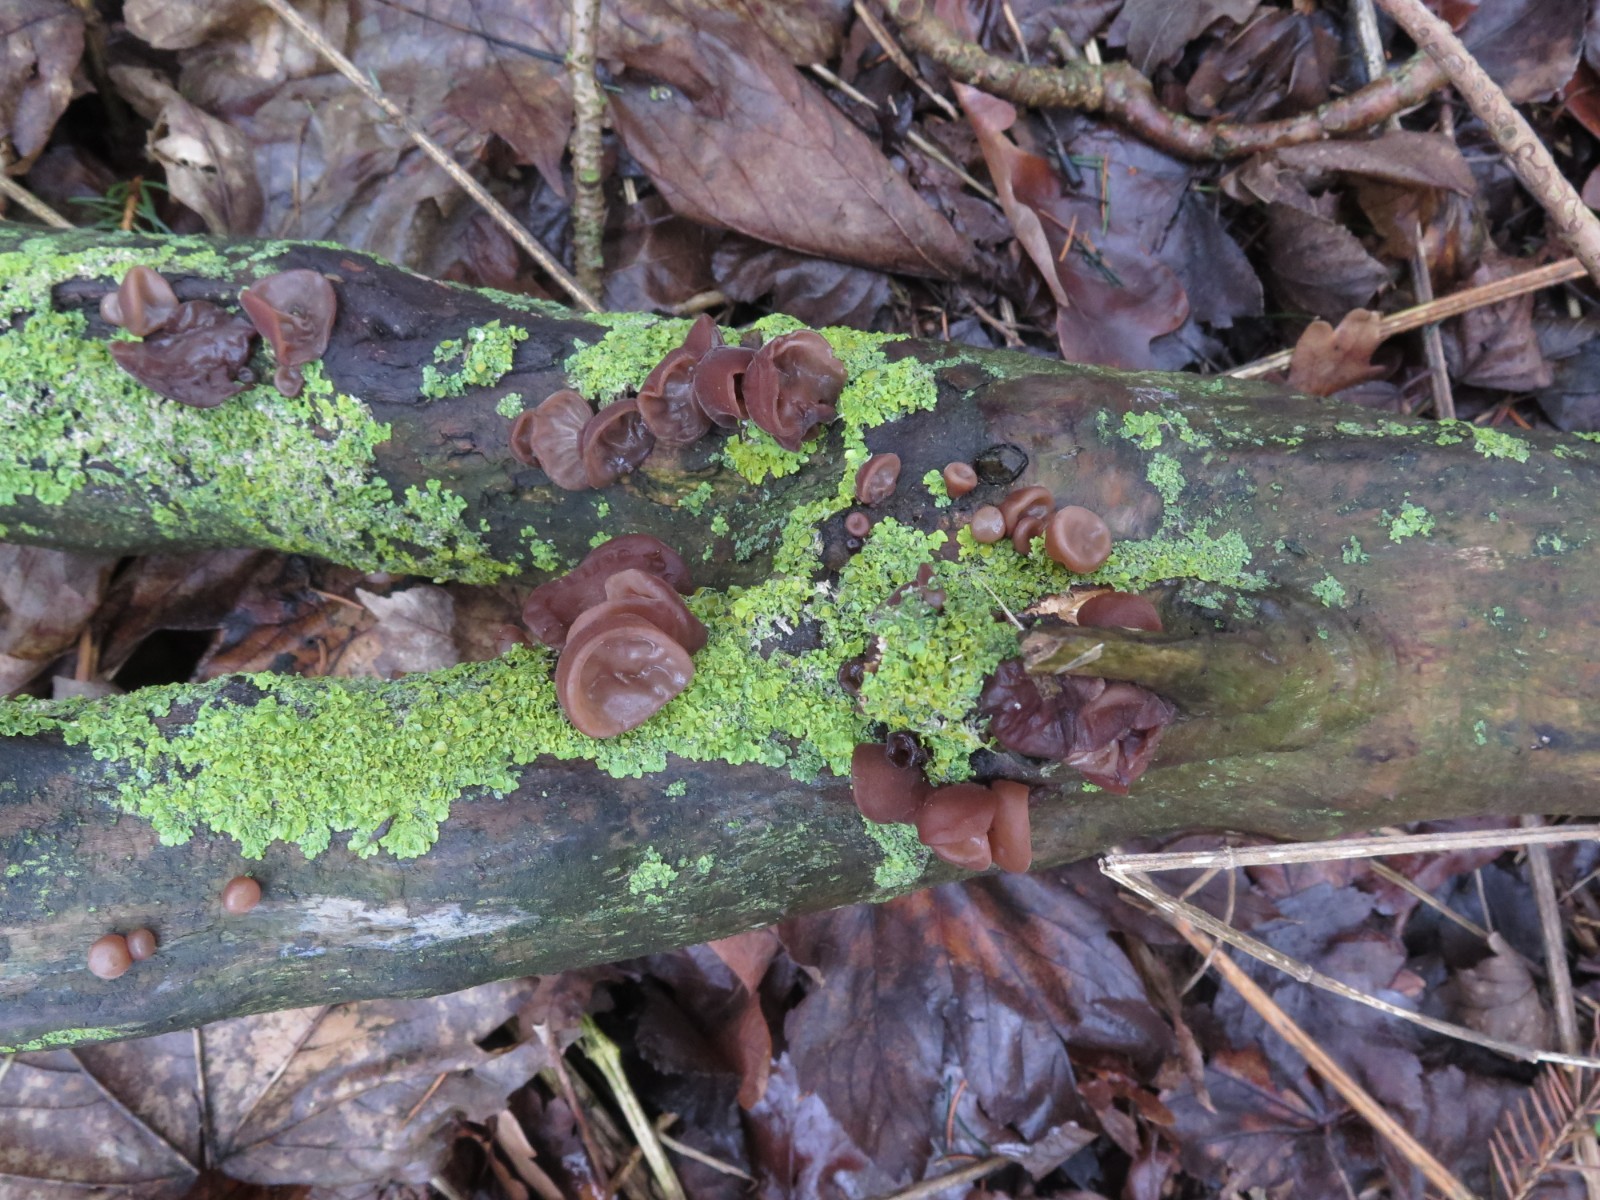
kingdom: Fungi
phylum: Basidiomycota
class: Agaricomycetes
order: Auriculariales
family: Auriculariaceae
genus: Auricularia
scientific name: Auricularia auricula-judae
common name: almindelig judasøre
